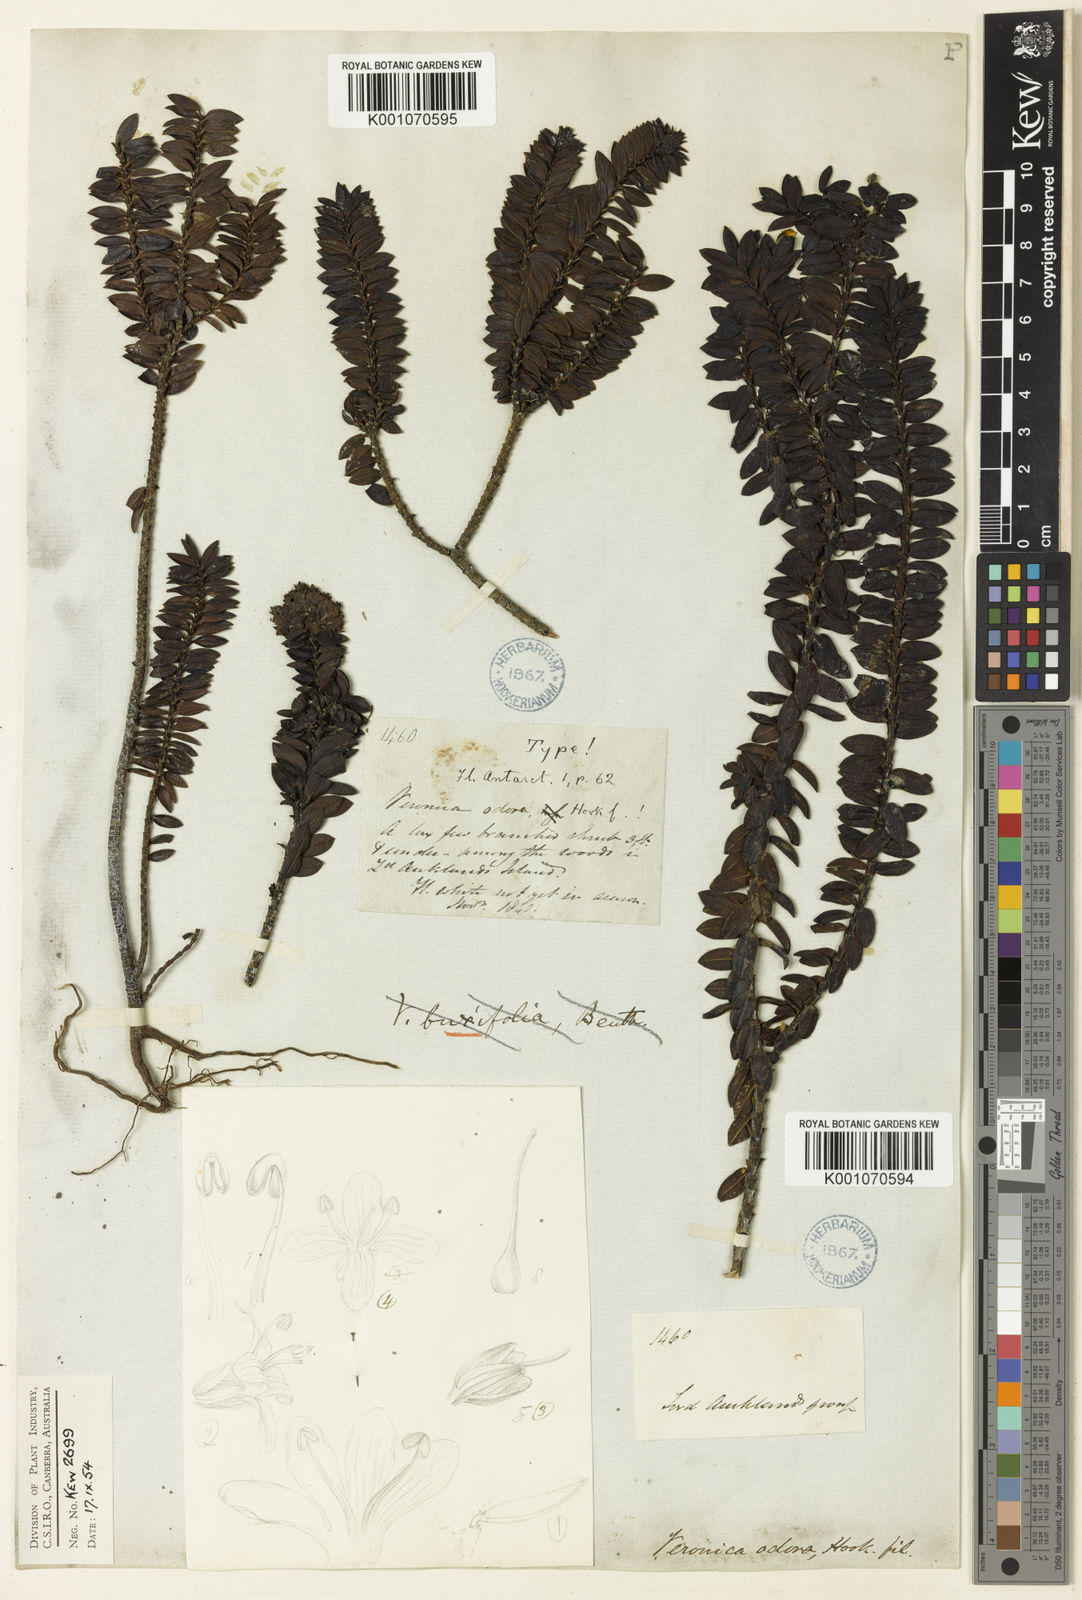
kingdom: Plantae
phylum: Tracheophyta
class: Magnoliopsida
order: Lamiales
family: Plantaginaceae
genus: Veronica
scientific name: Veronica odora
